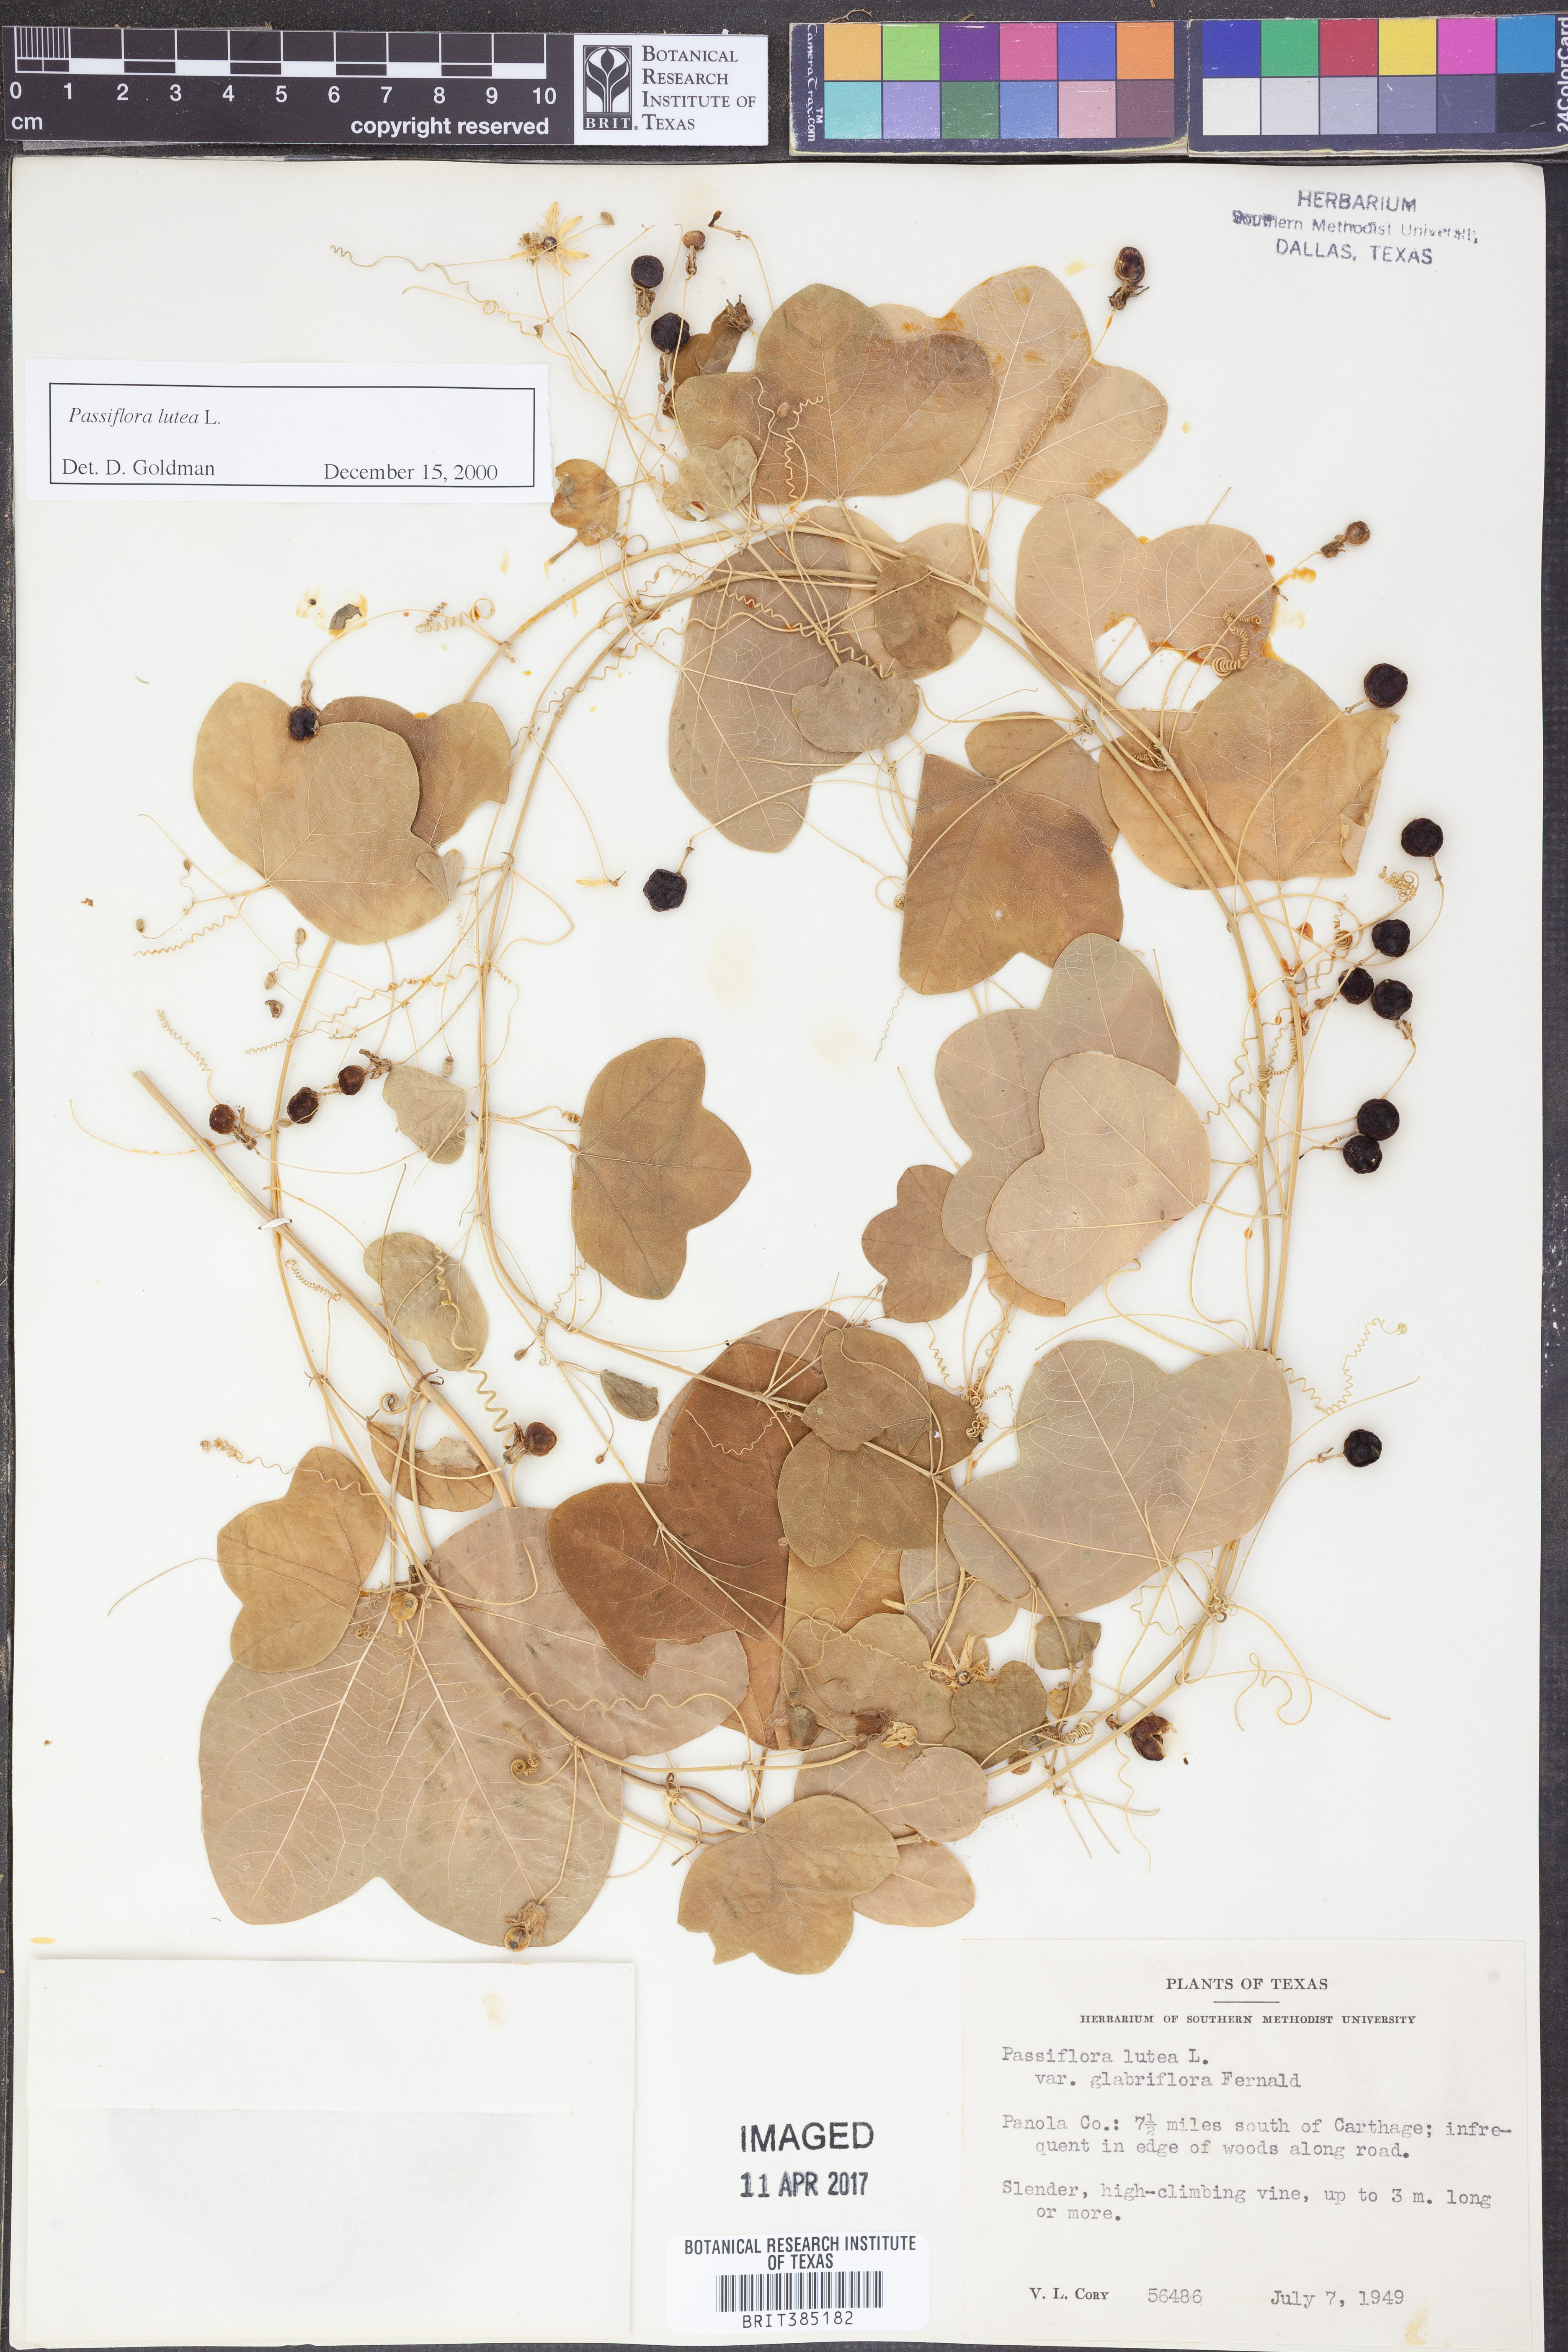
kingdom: Plantae
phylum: Tracheophyta
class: Magnoliopsida
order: Malpighiales
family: Passifloraceae
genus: Passiflora
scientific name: Passiflora lutea
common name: Yellow passionflower
